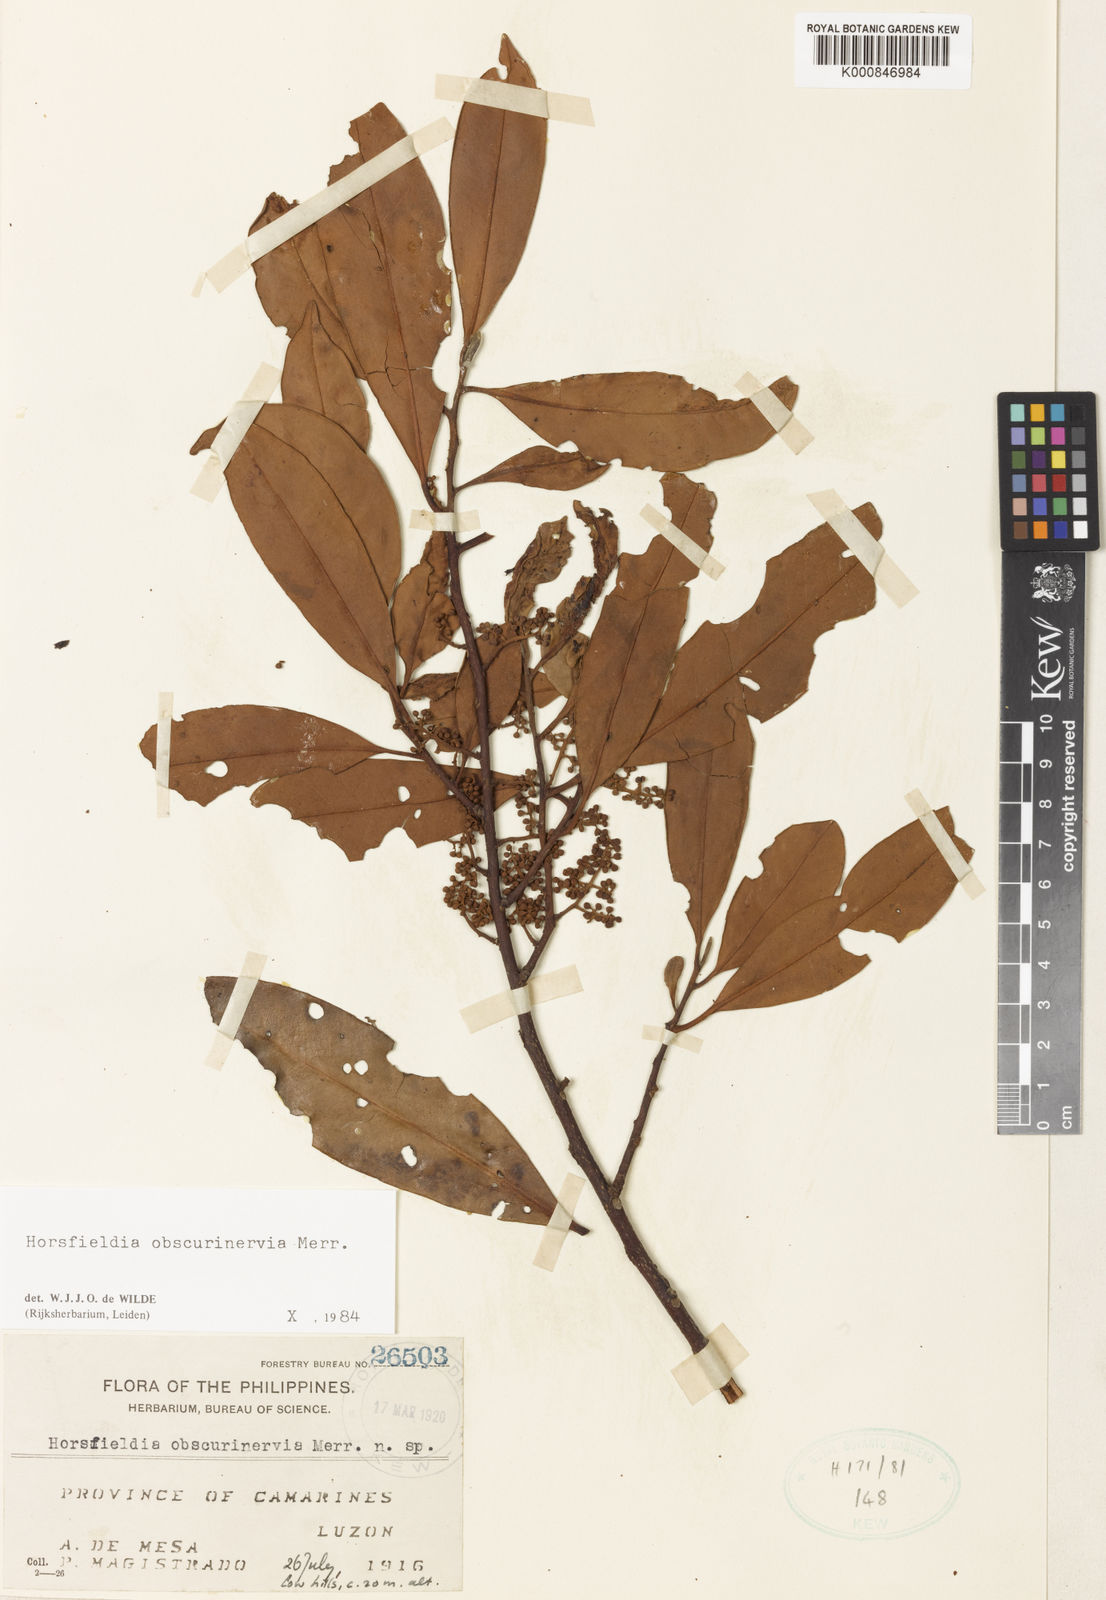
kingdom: Plantae
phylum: Tracheophyta
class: Magnoliopsida
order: Magnoliales
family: Myristicaceae
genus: Horsfieldia
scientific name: Horsfieldia obscurinervia
